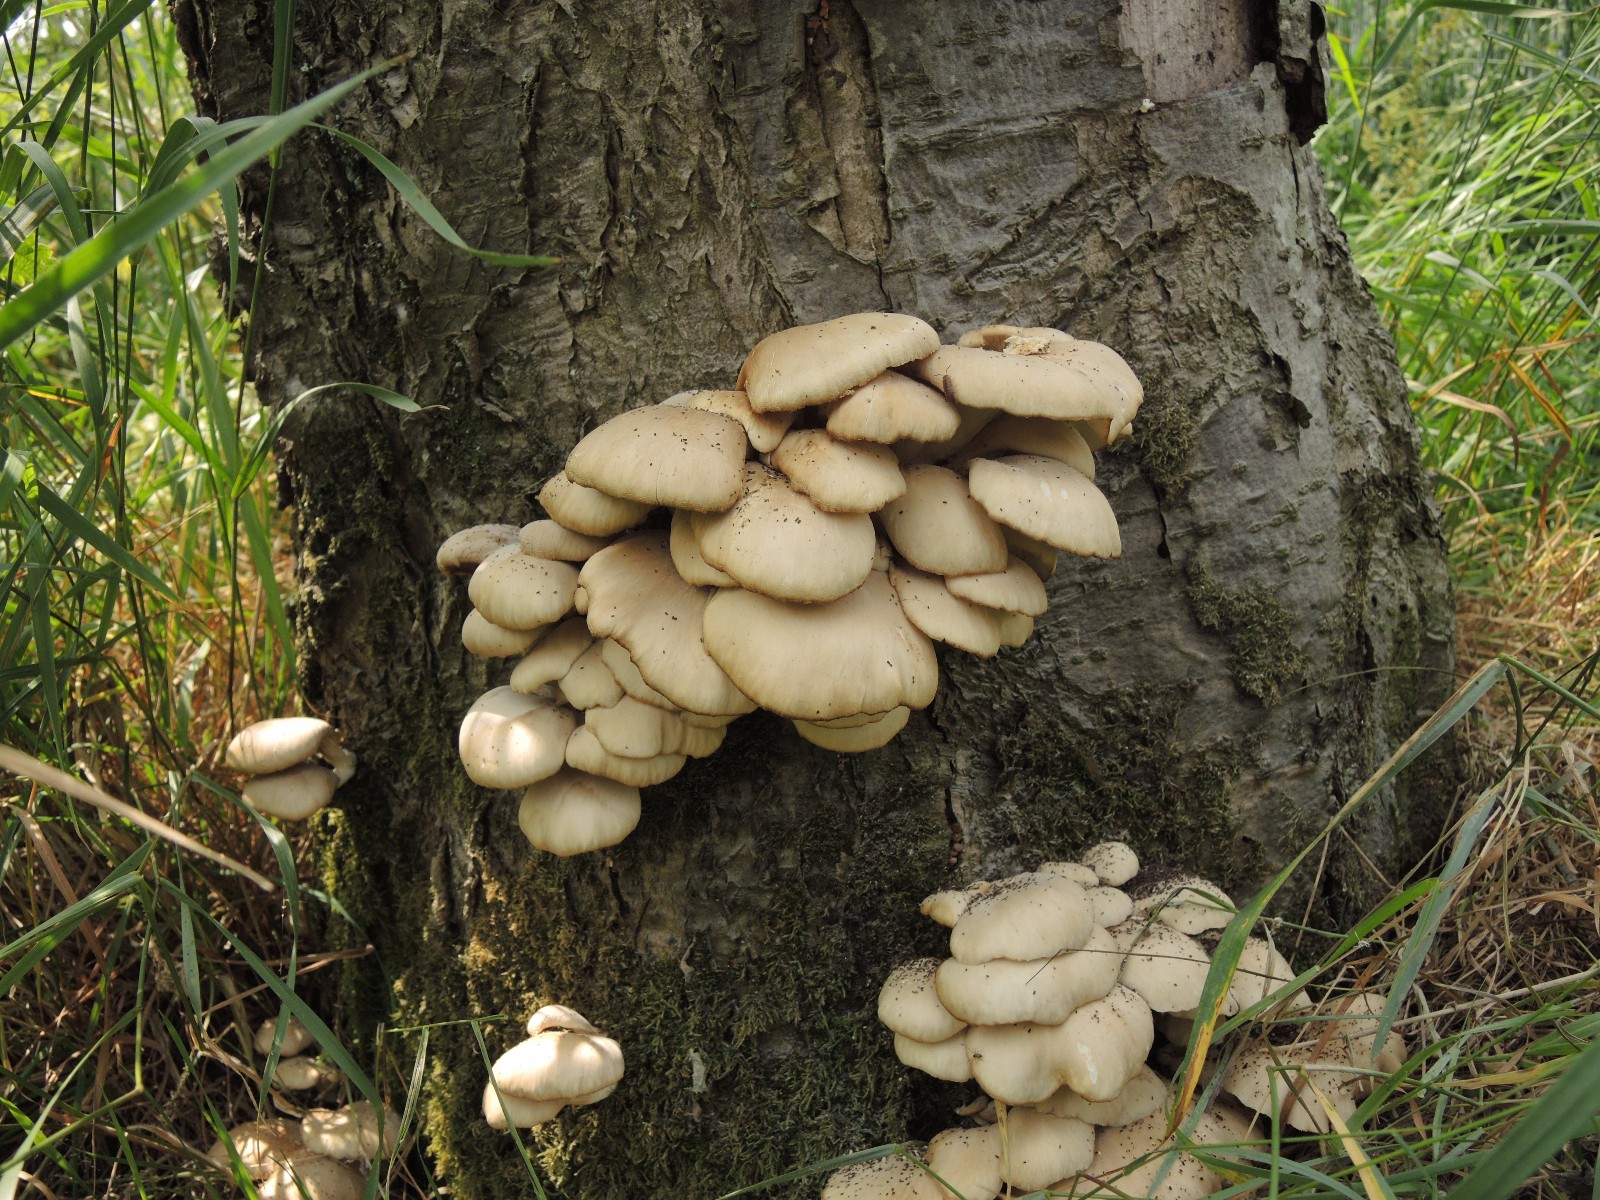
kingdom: Fungi
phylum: Basidiomycota
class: Agaricomycetes
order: Agaricales
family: Pleurotaceae
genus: Pleurotus
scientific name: Pleurotus pulmonarius
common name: sommer-østershat
